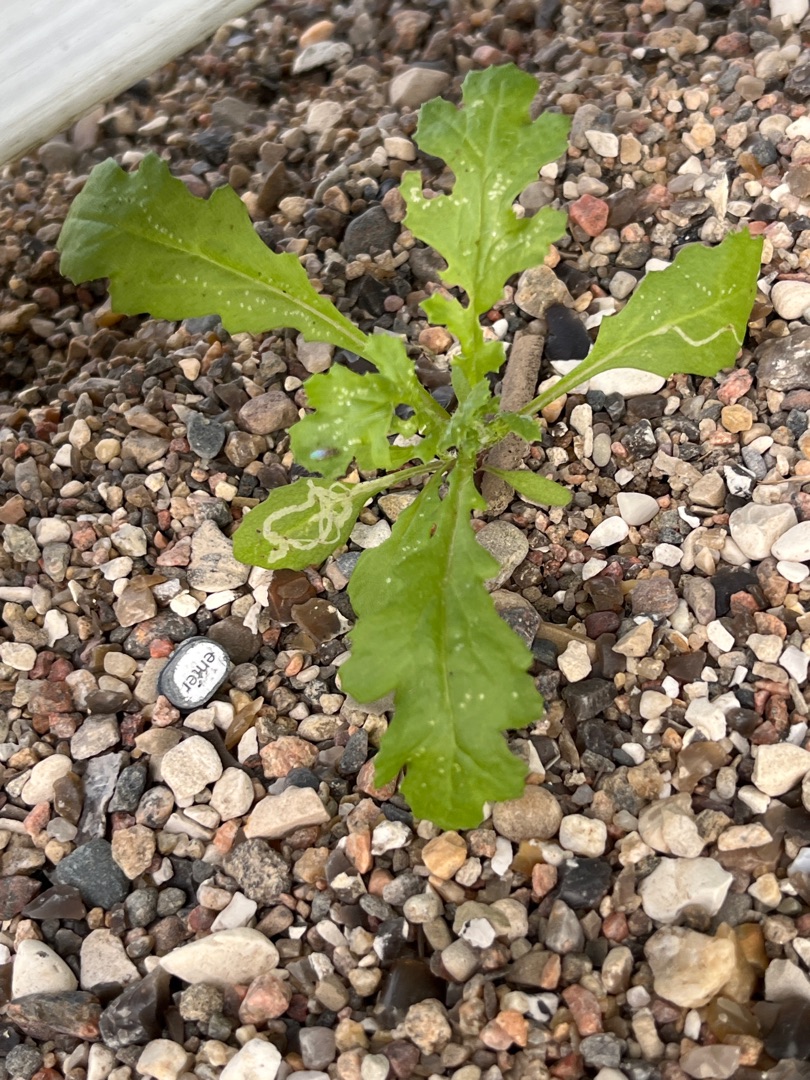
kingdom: Plantae
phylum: Tracheophyta
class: Magnoliopsida
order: Asterales
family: Asteraceae
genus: Senecio
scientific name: Senecio vulgaris
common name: Almindelig brandbæger
